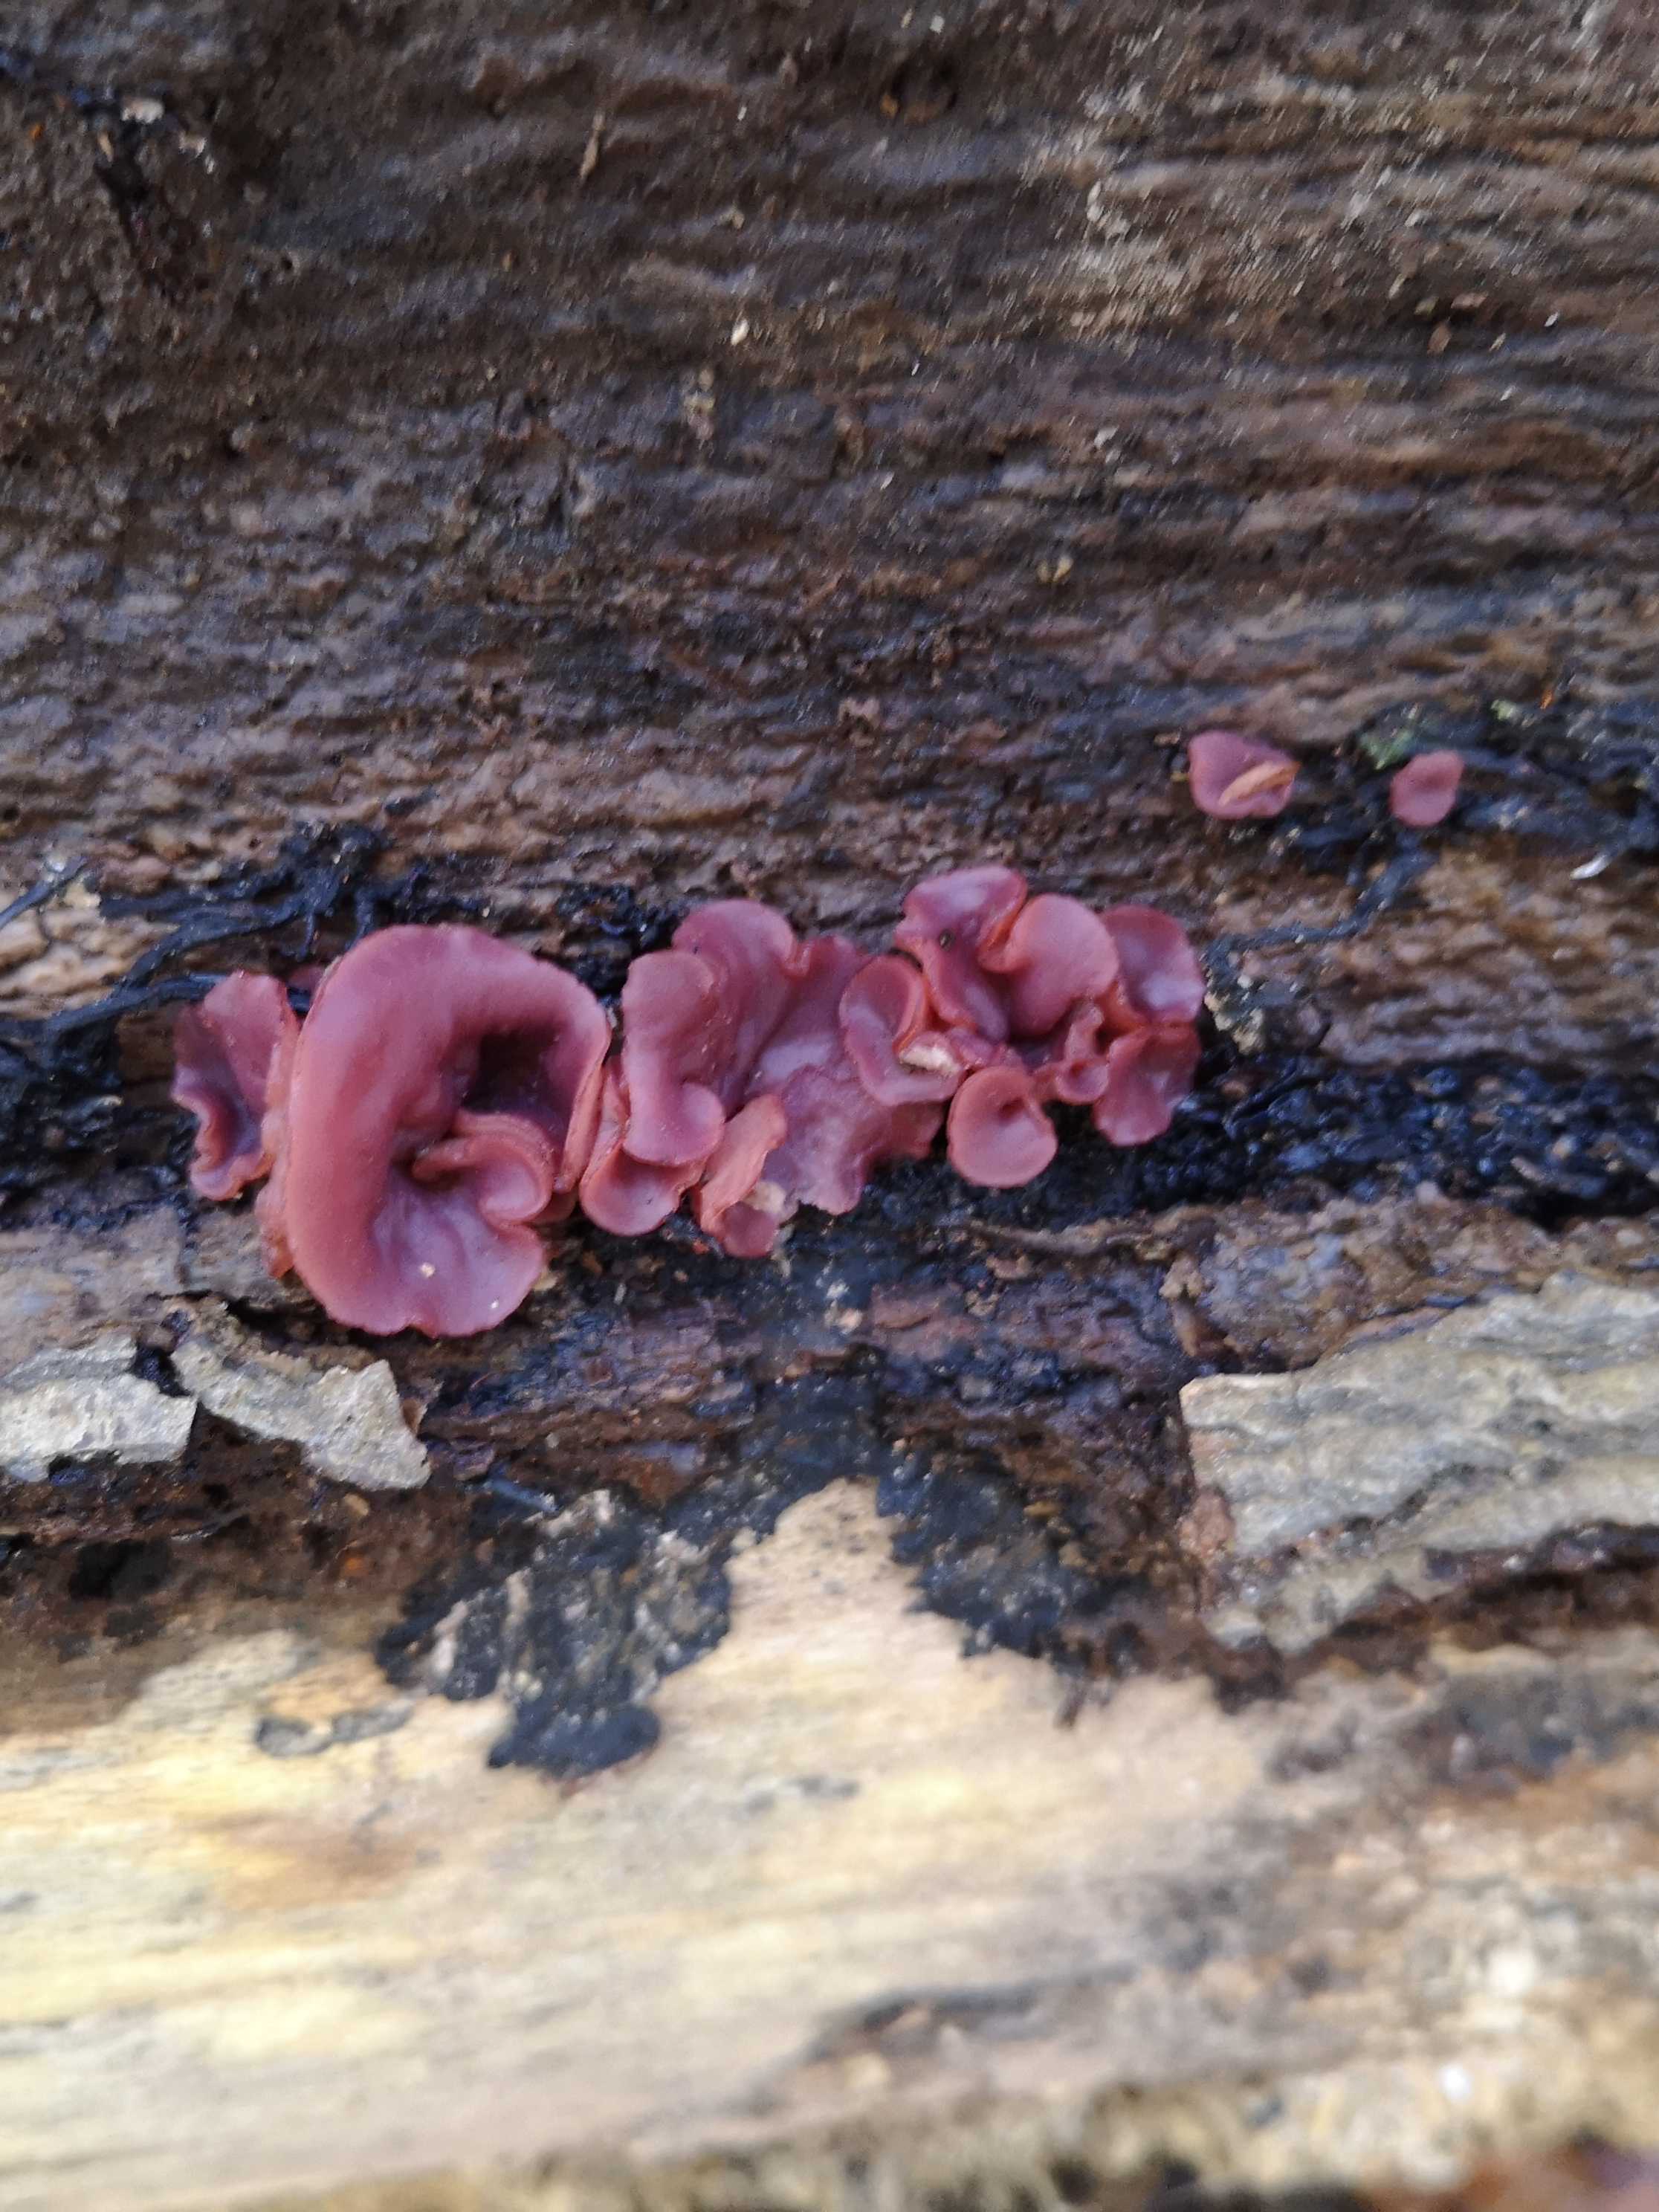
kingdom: Fungi
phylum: Ascomycota
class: Leotiomycetes
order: Helotiales
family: Gelatinodiscaceae
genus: Ascocoryne
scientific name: Ascocoryne cylichnium
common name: stor sejskive
